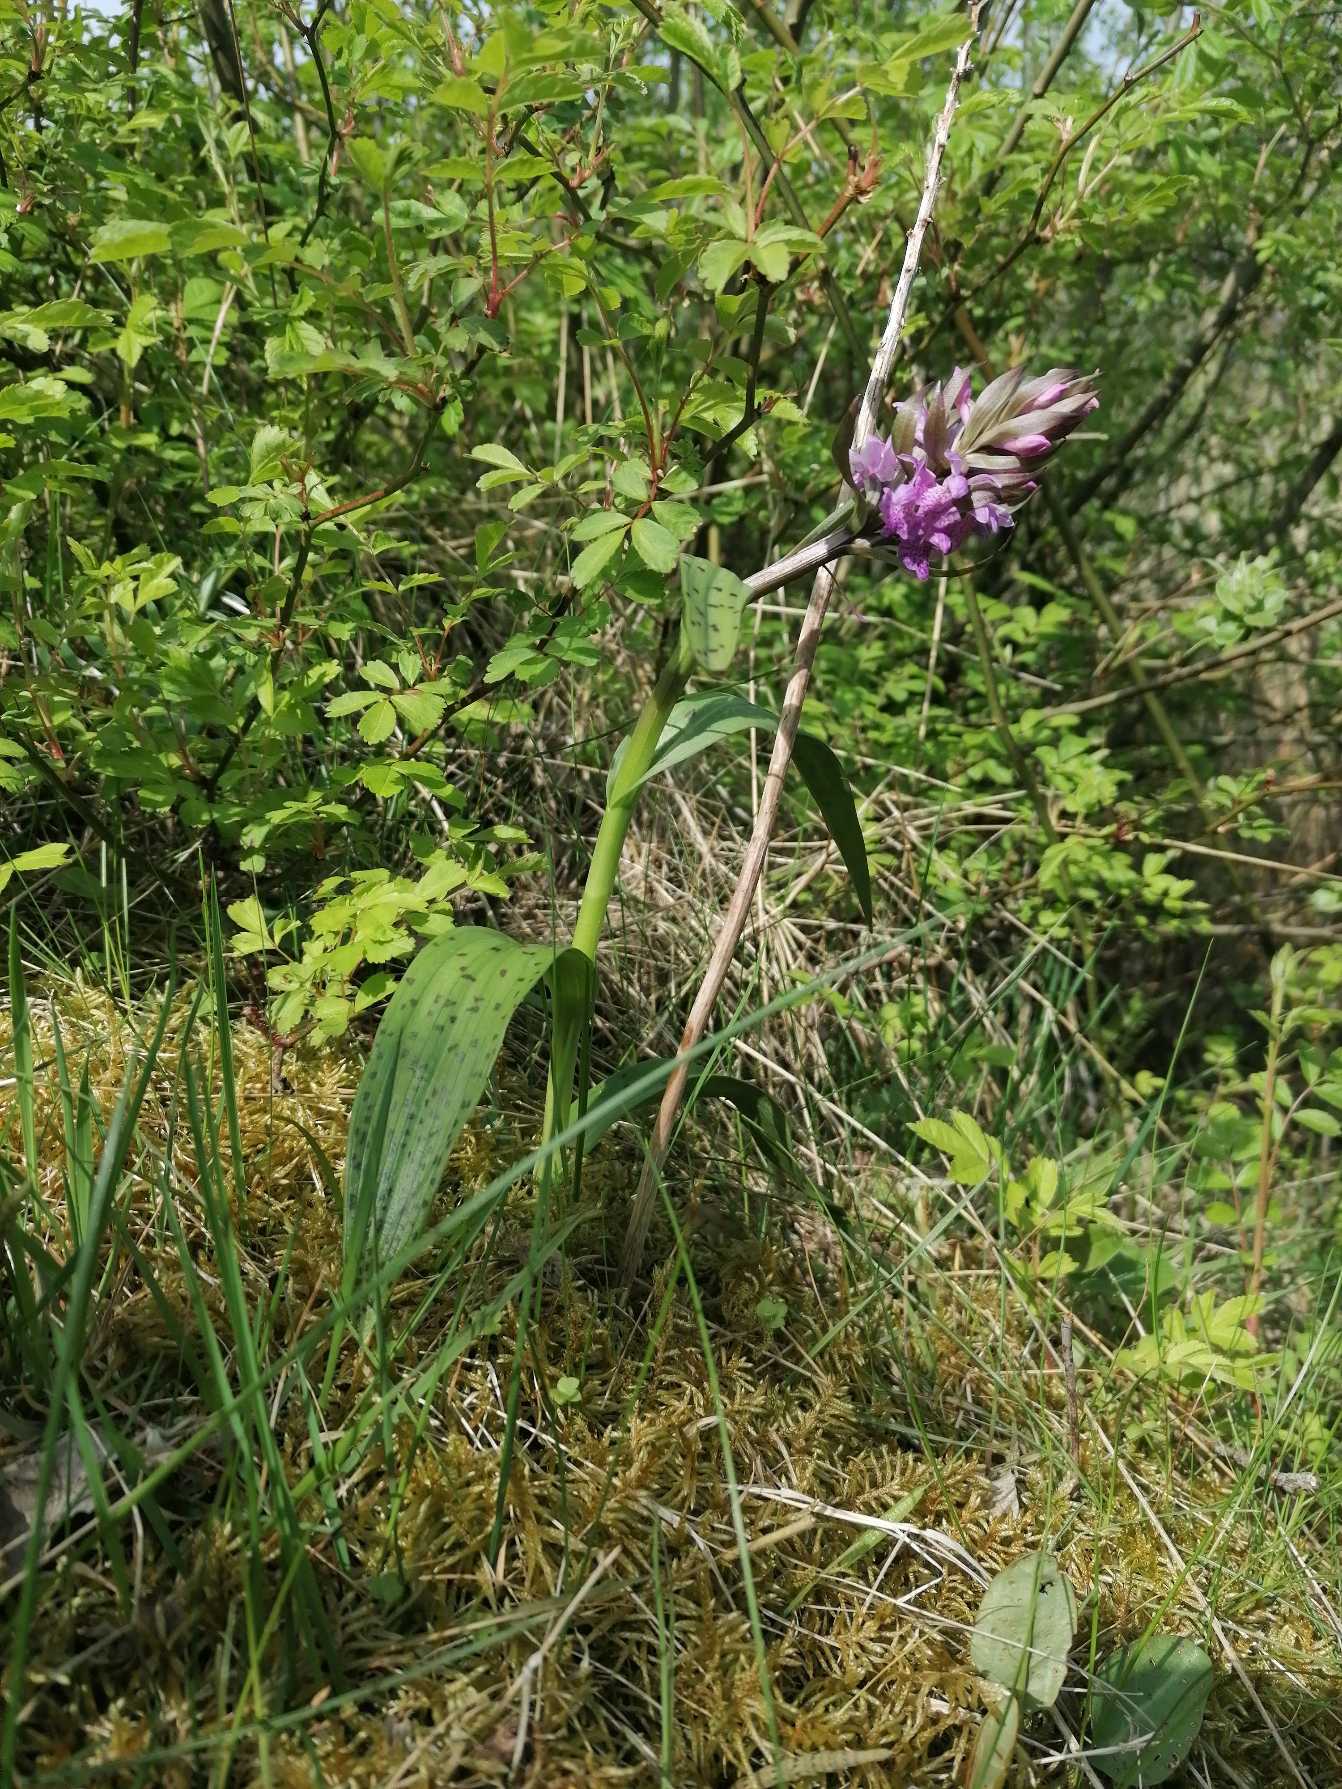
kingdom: Plantae
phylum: Tracheophyta
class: Liliopsida
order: Asparagales
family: Orchidaceae
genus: Dactylorhiza
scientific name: Dactylorhiza majalis
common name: Maj-gøgeurt
